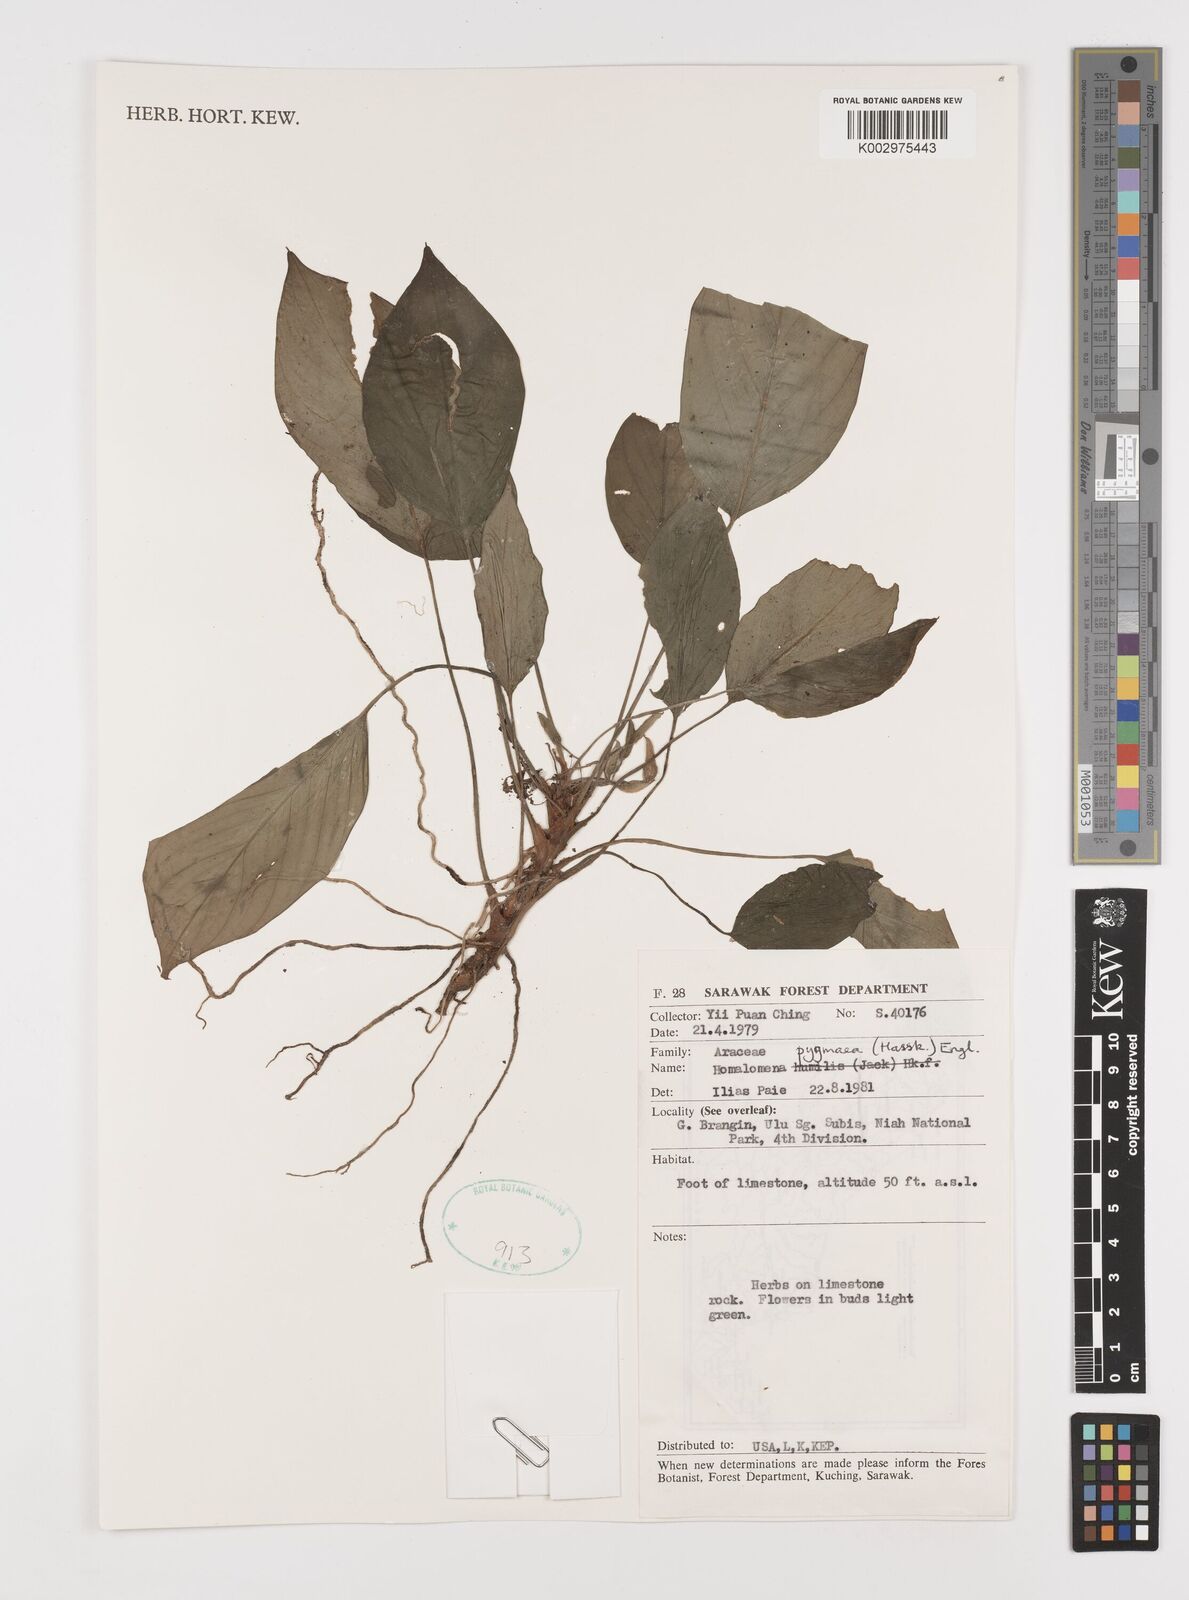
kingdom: Plantae
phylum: Tracheophyta
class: Liliopsida
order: Alismatales
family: Araceae
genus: Homalomena
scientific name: Homalomena humilis
